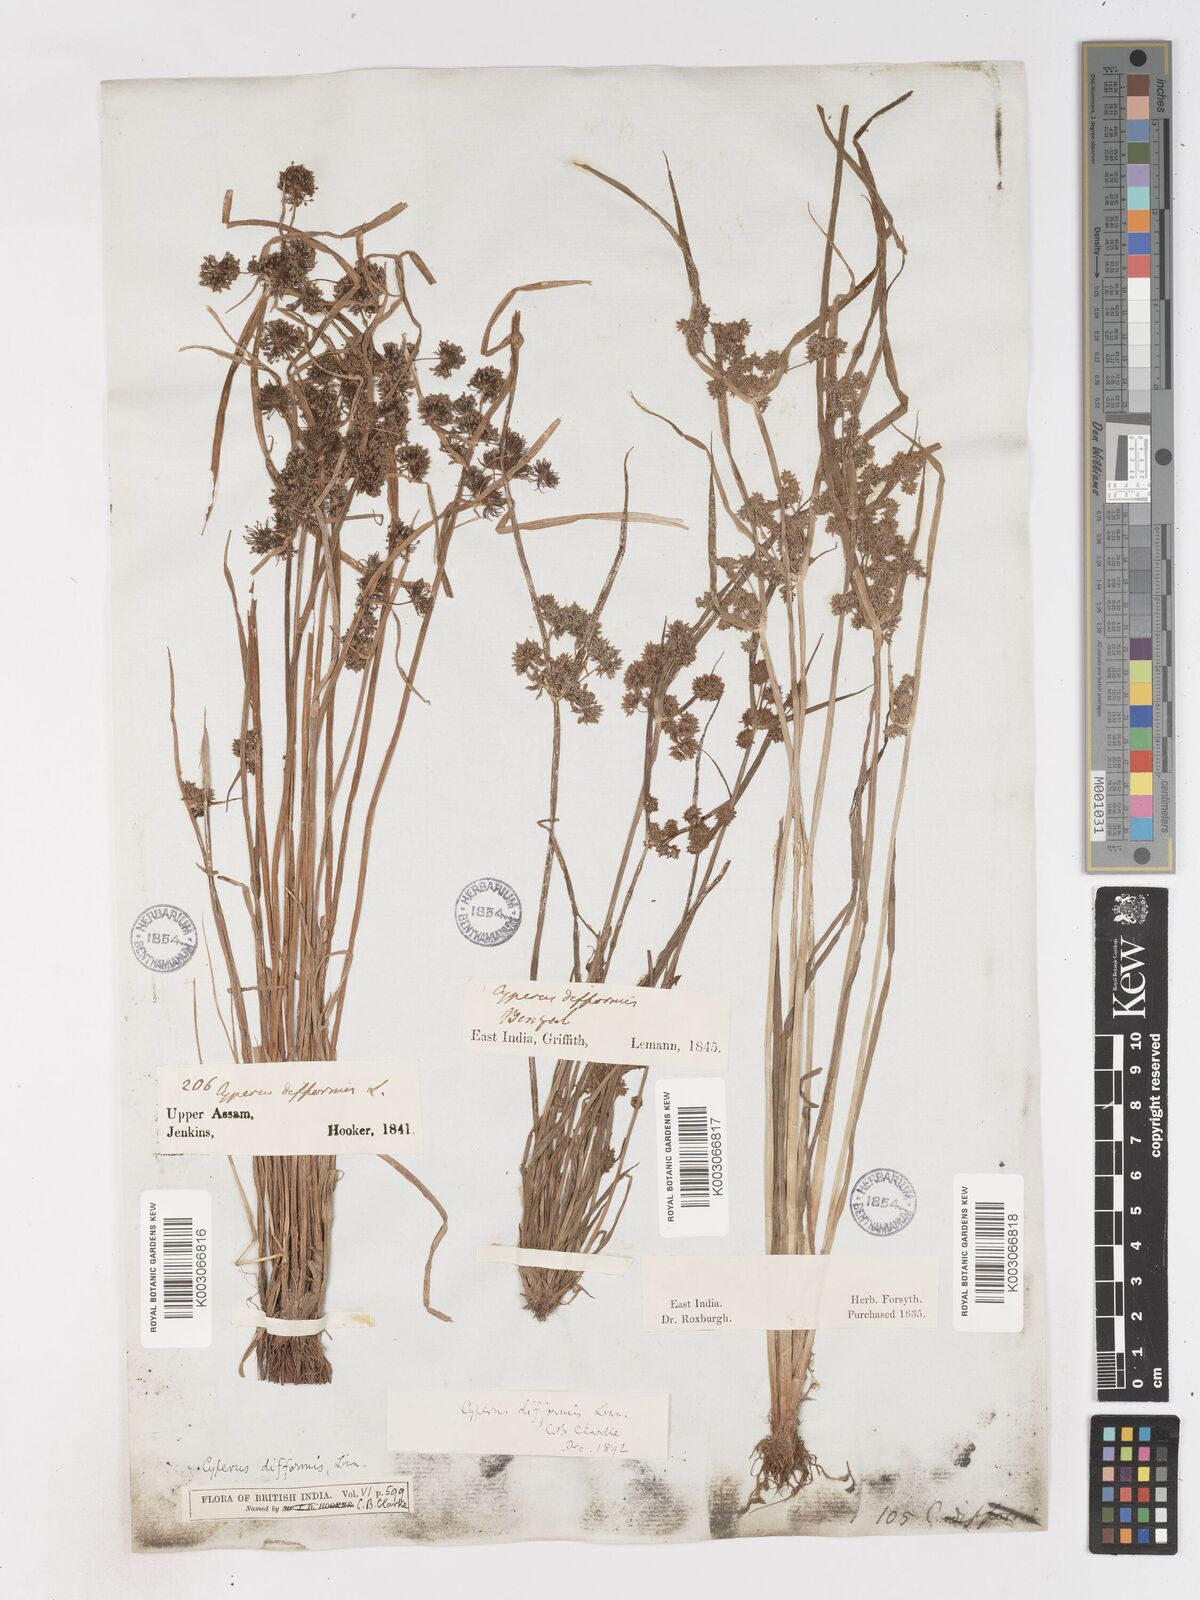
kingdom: Plantae
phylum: Tracheophyta
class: Liliopsida
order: Poales
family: Cyperaceae
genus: Cyperus
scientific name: Cyperus difformis
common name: Variable flatsedge
